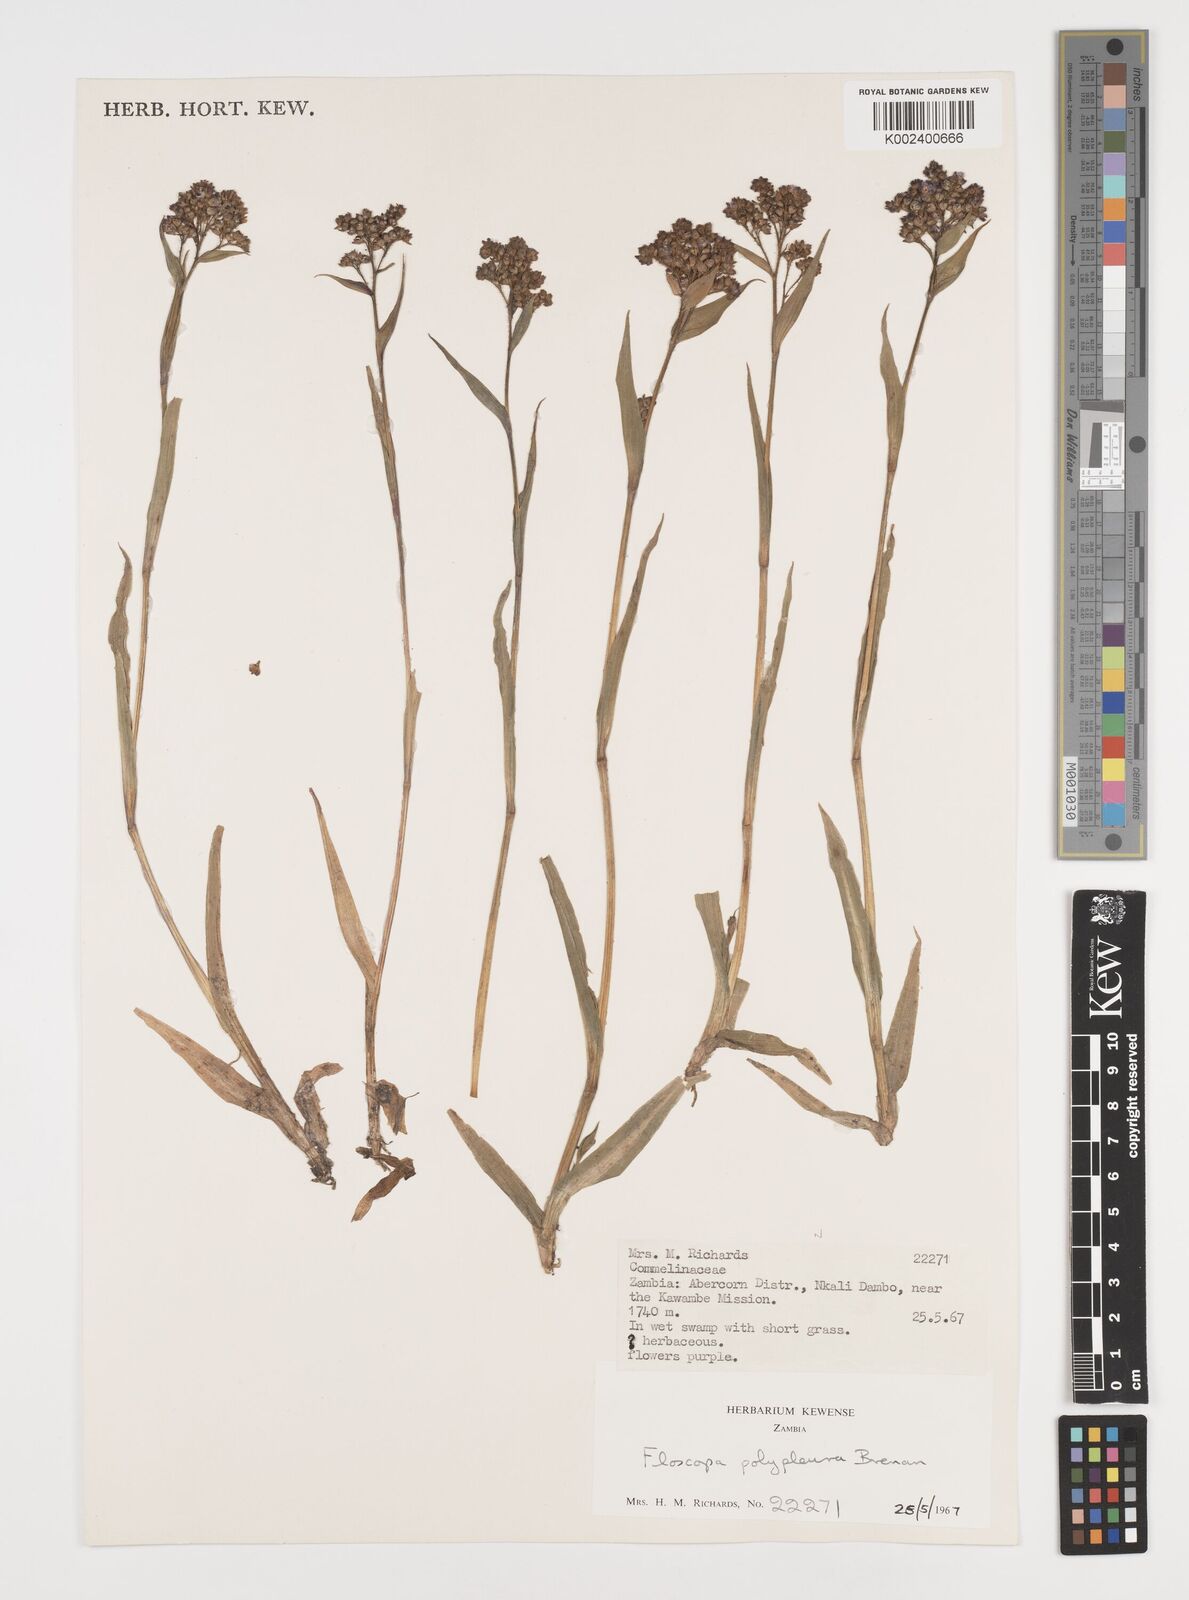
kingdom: Plantae
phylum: Tracheophyta
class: Liliopsida
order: Commelinales
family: Commelinaceae
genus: Floscopa
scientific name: Floscopa polypleura
